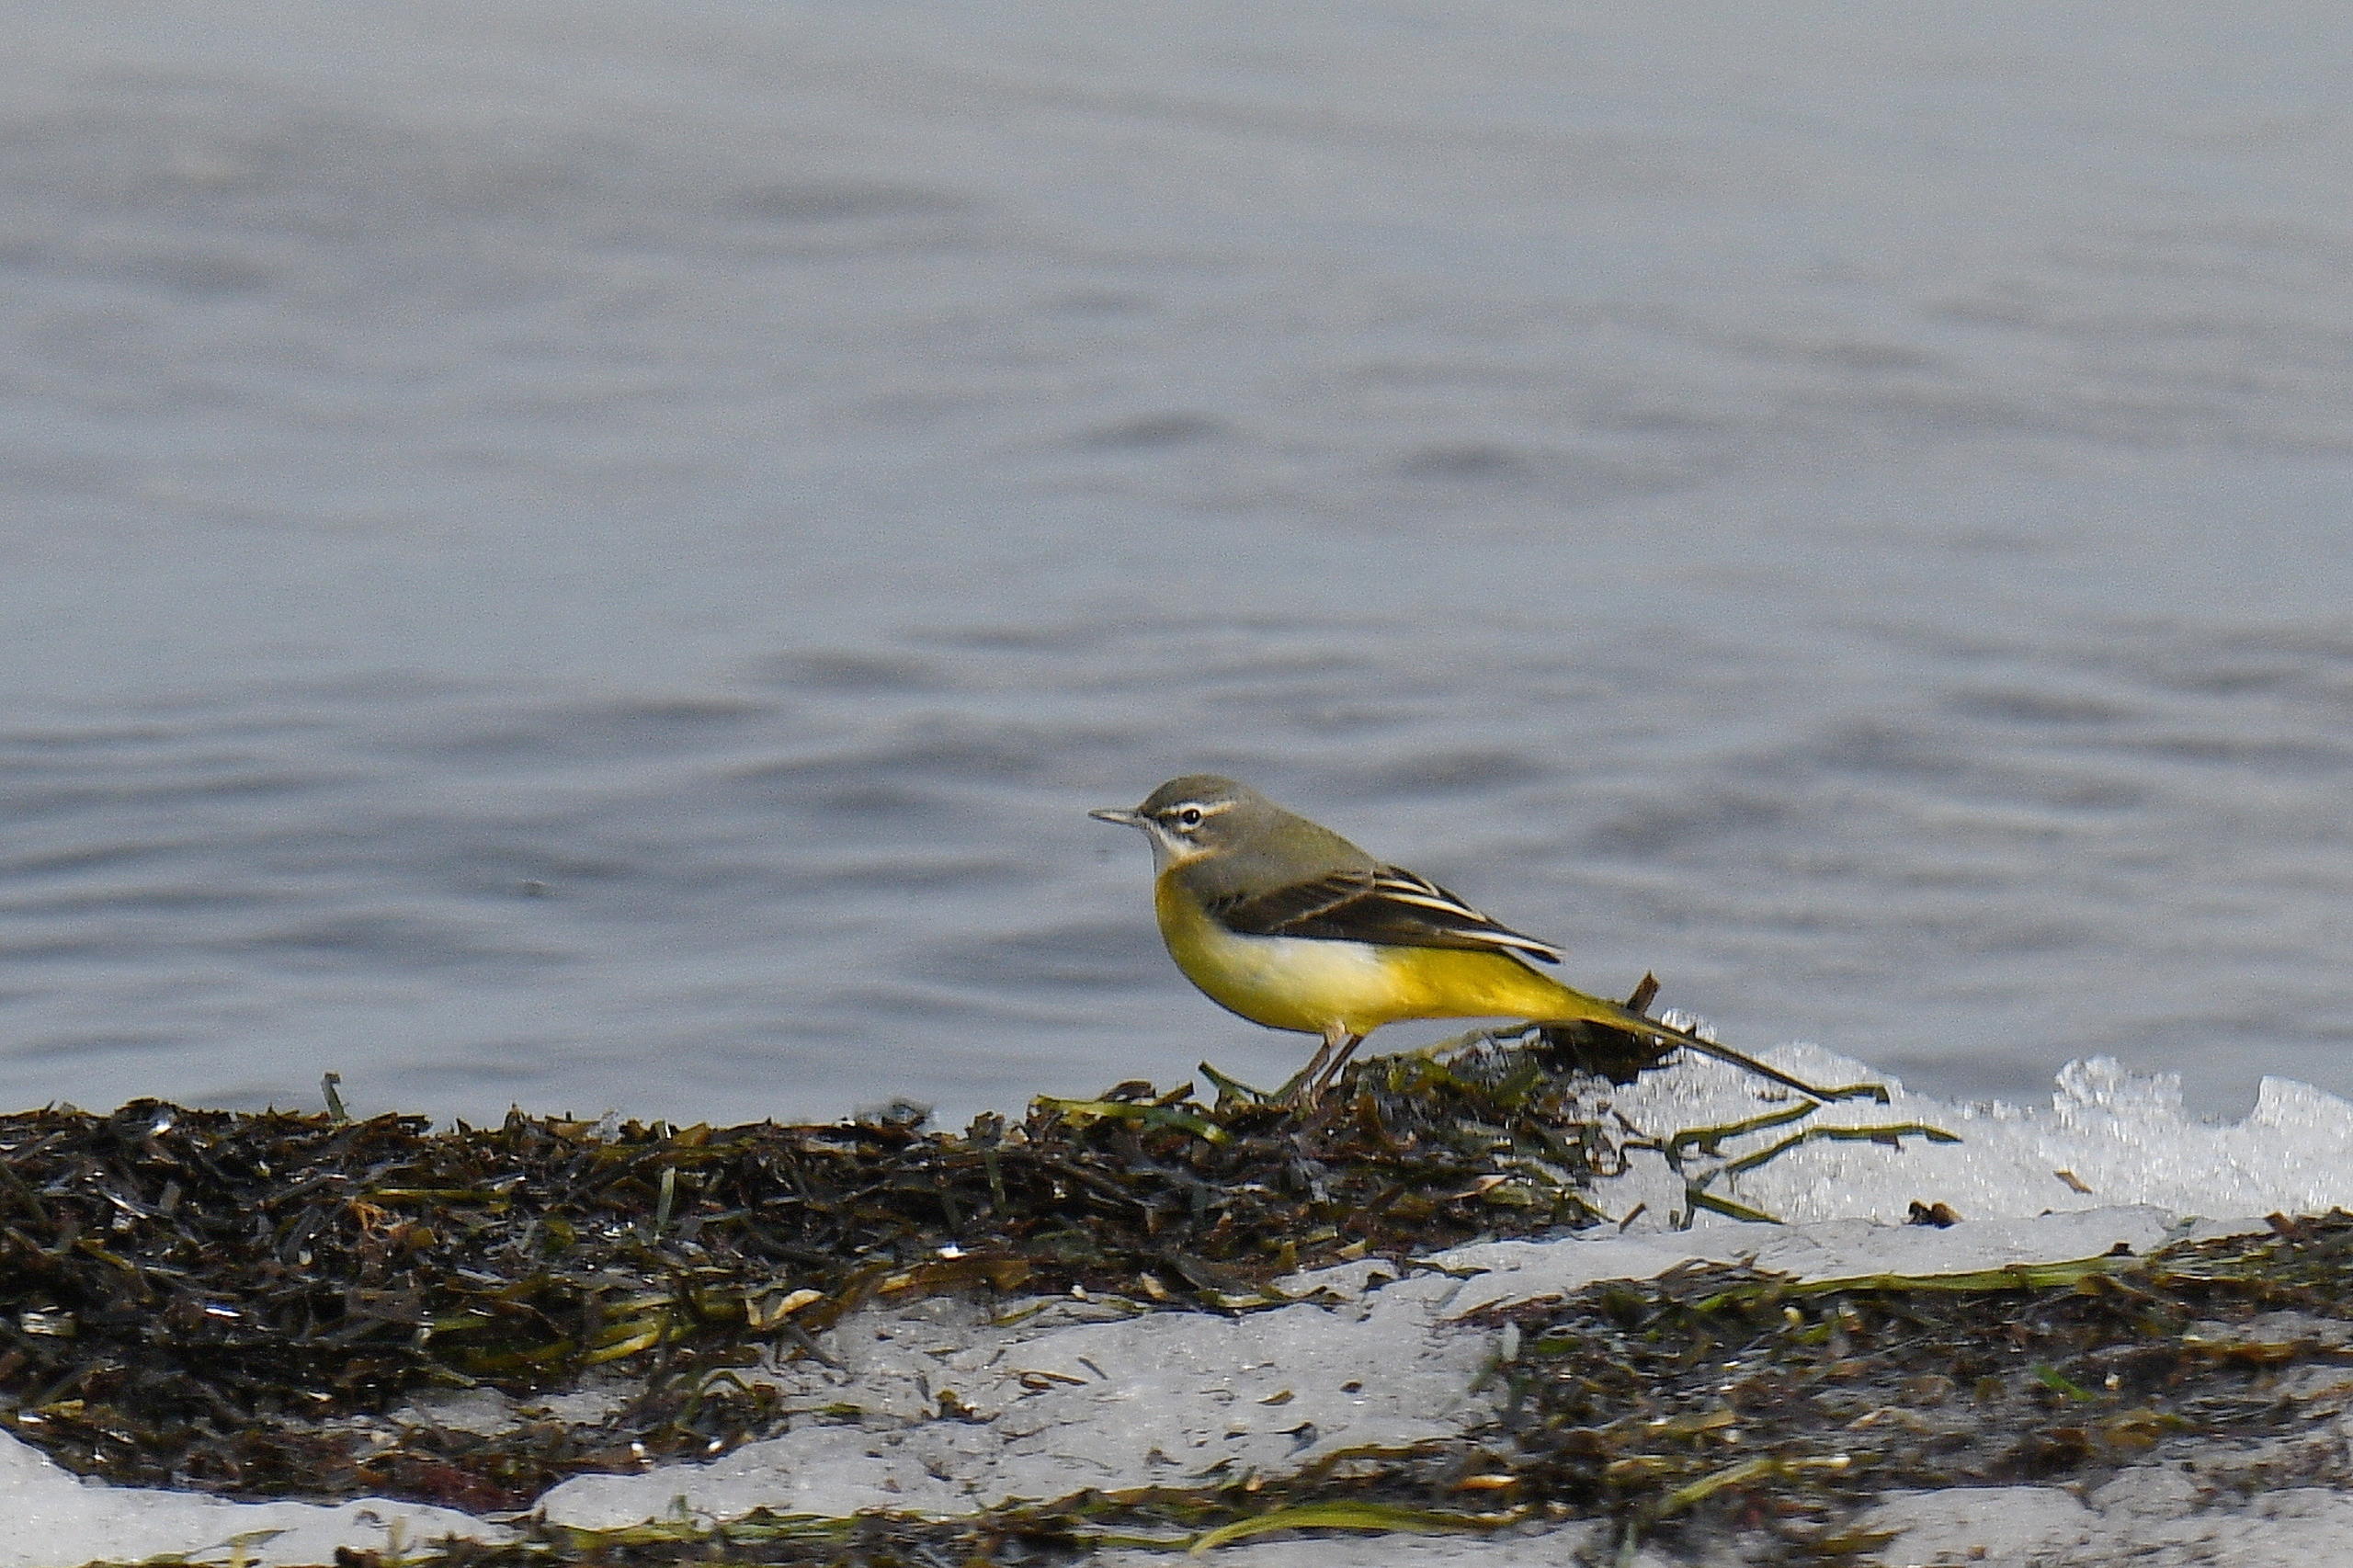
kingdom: Animalia
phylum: Chordata
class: Aves
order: Passeriformes
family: Motacillidae
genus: Motacilla
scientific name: Motacilla cinerea
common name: Bjergvipstjert
